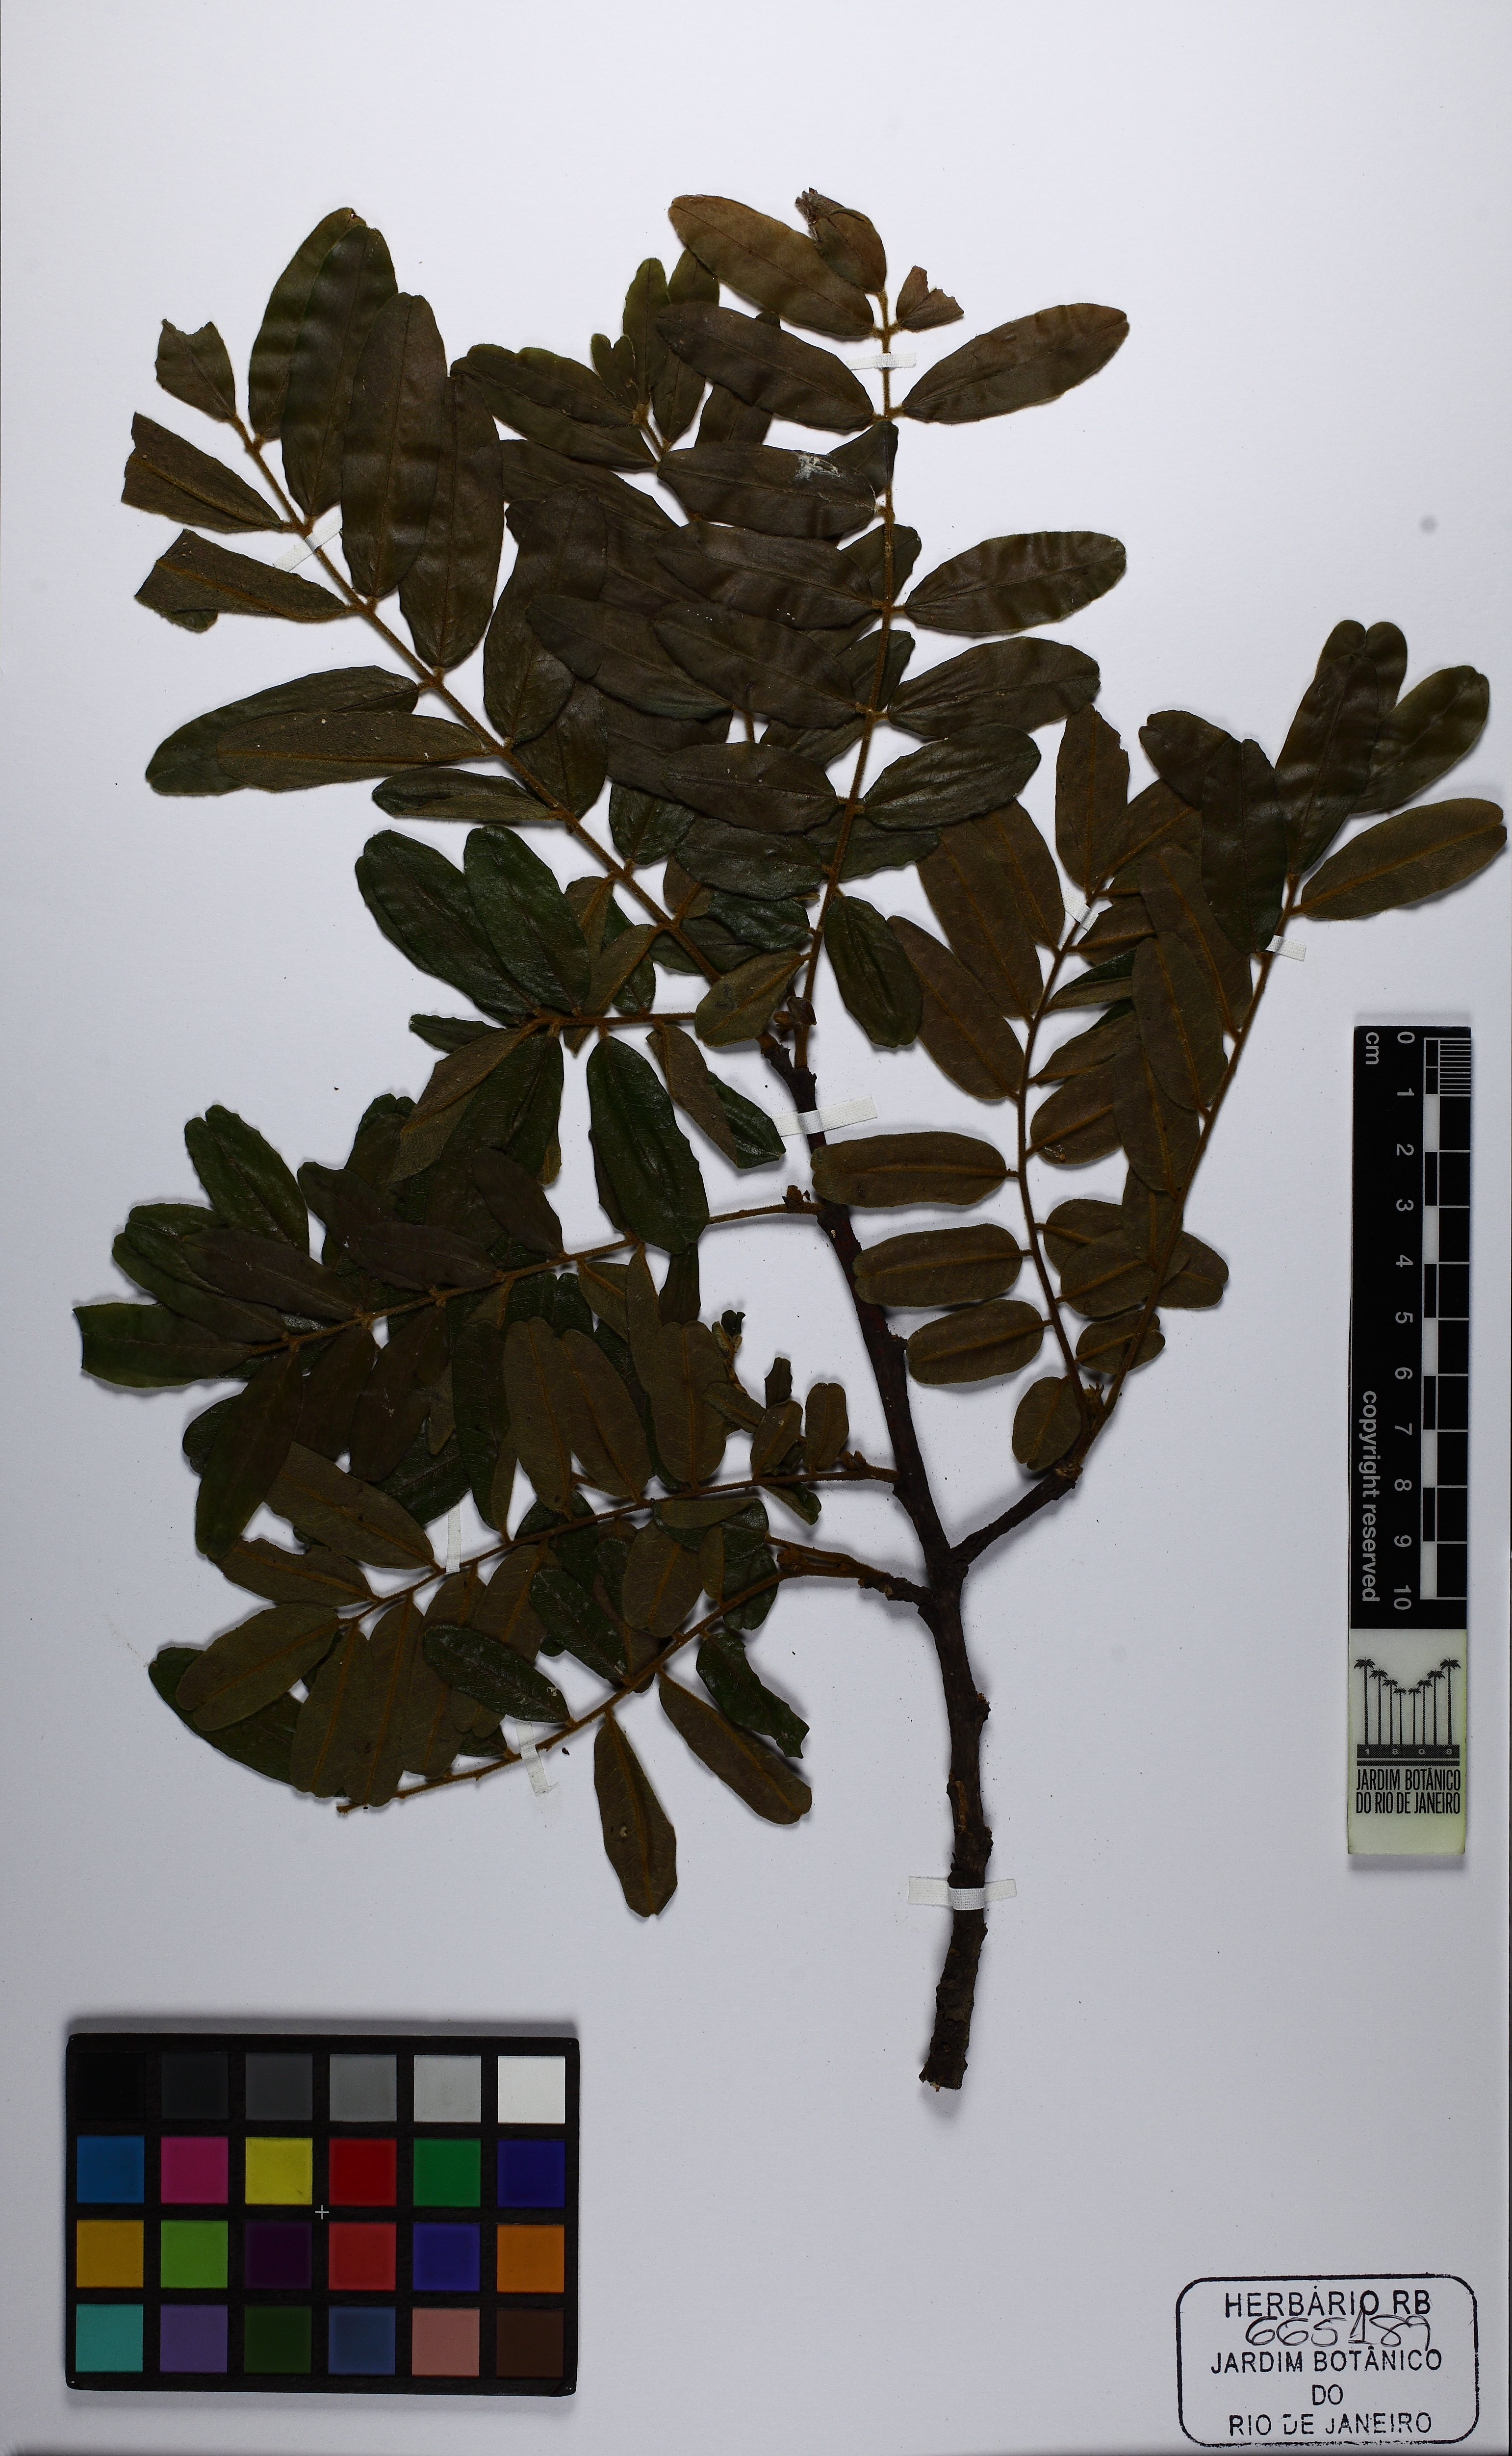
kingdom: Plantae
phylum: Tracheophyta
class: Magnoliopsida
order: Fabales
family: Fabaceae
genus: Bowdichia
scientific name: Bowdichia virgilioides
